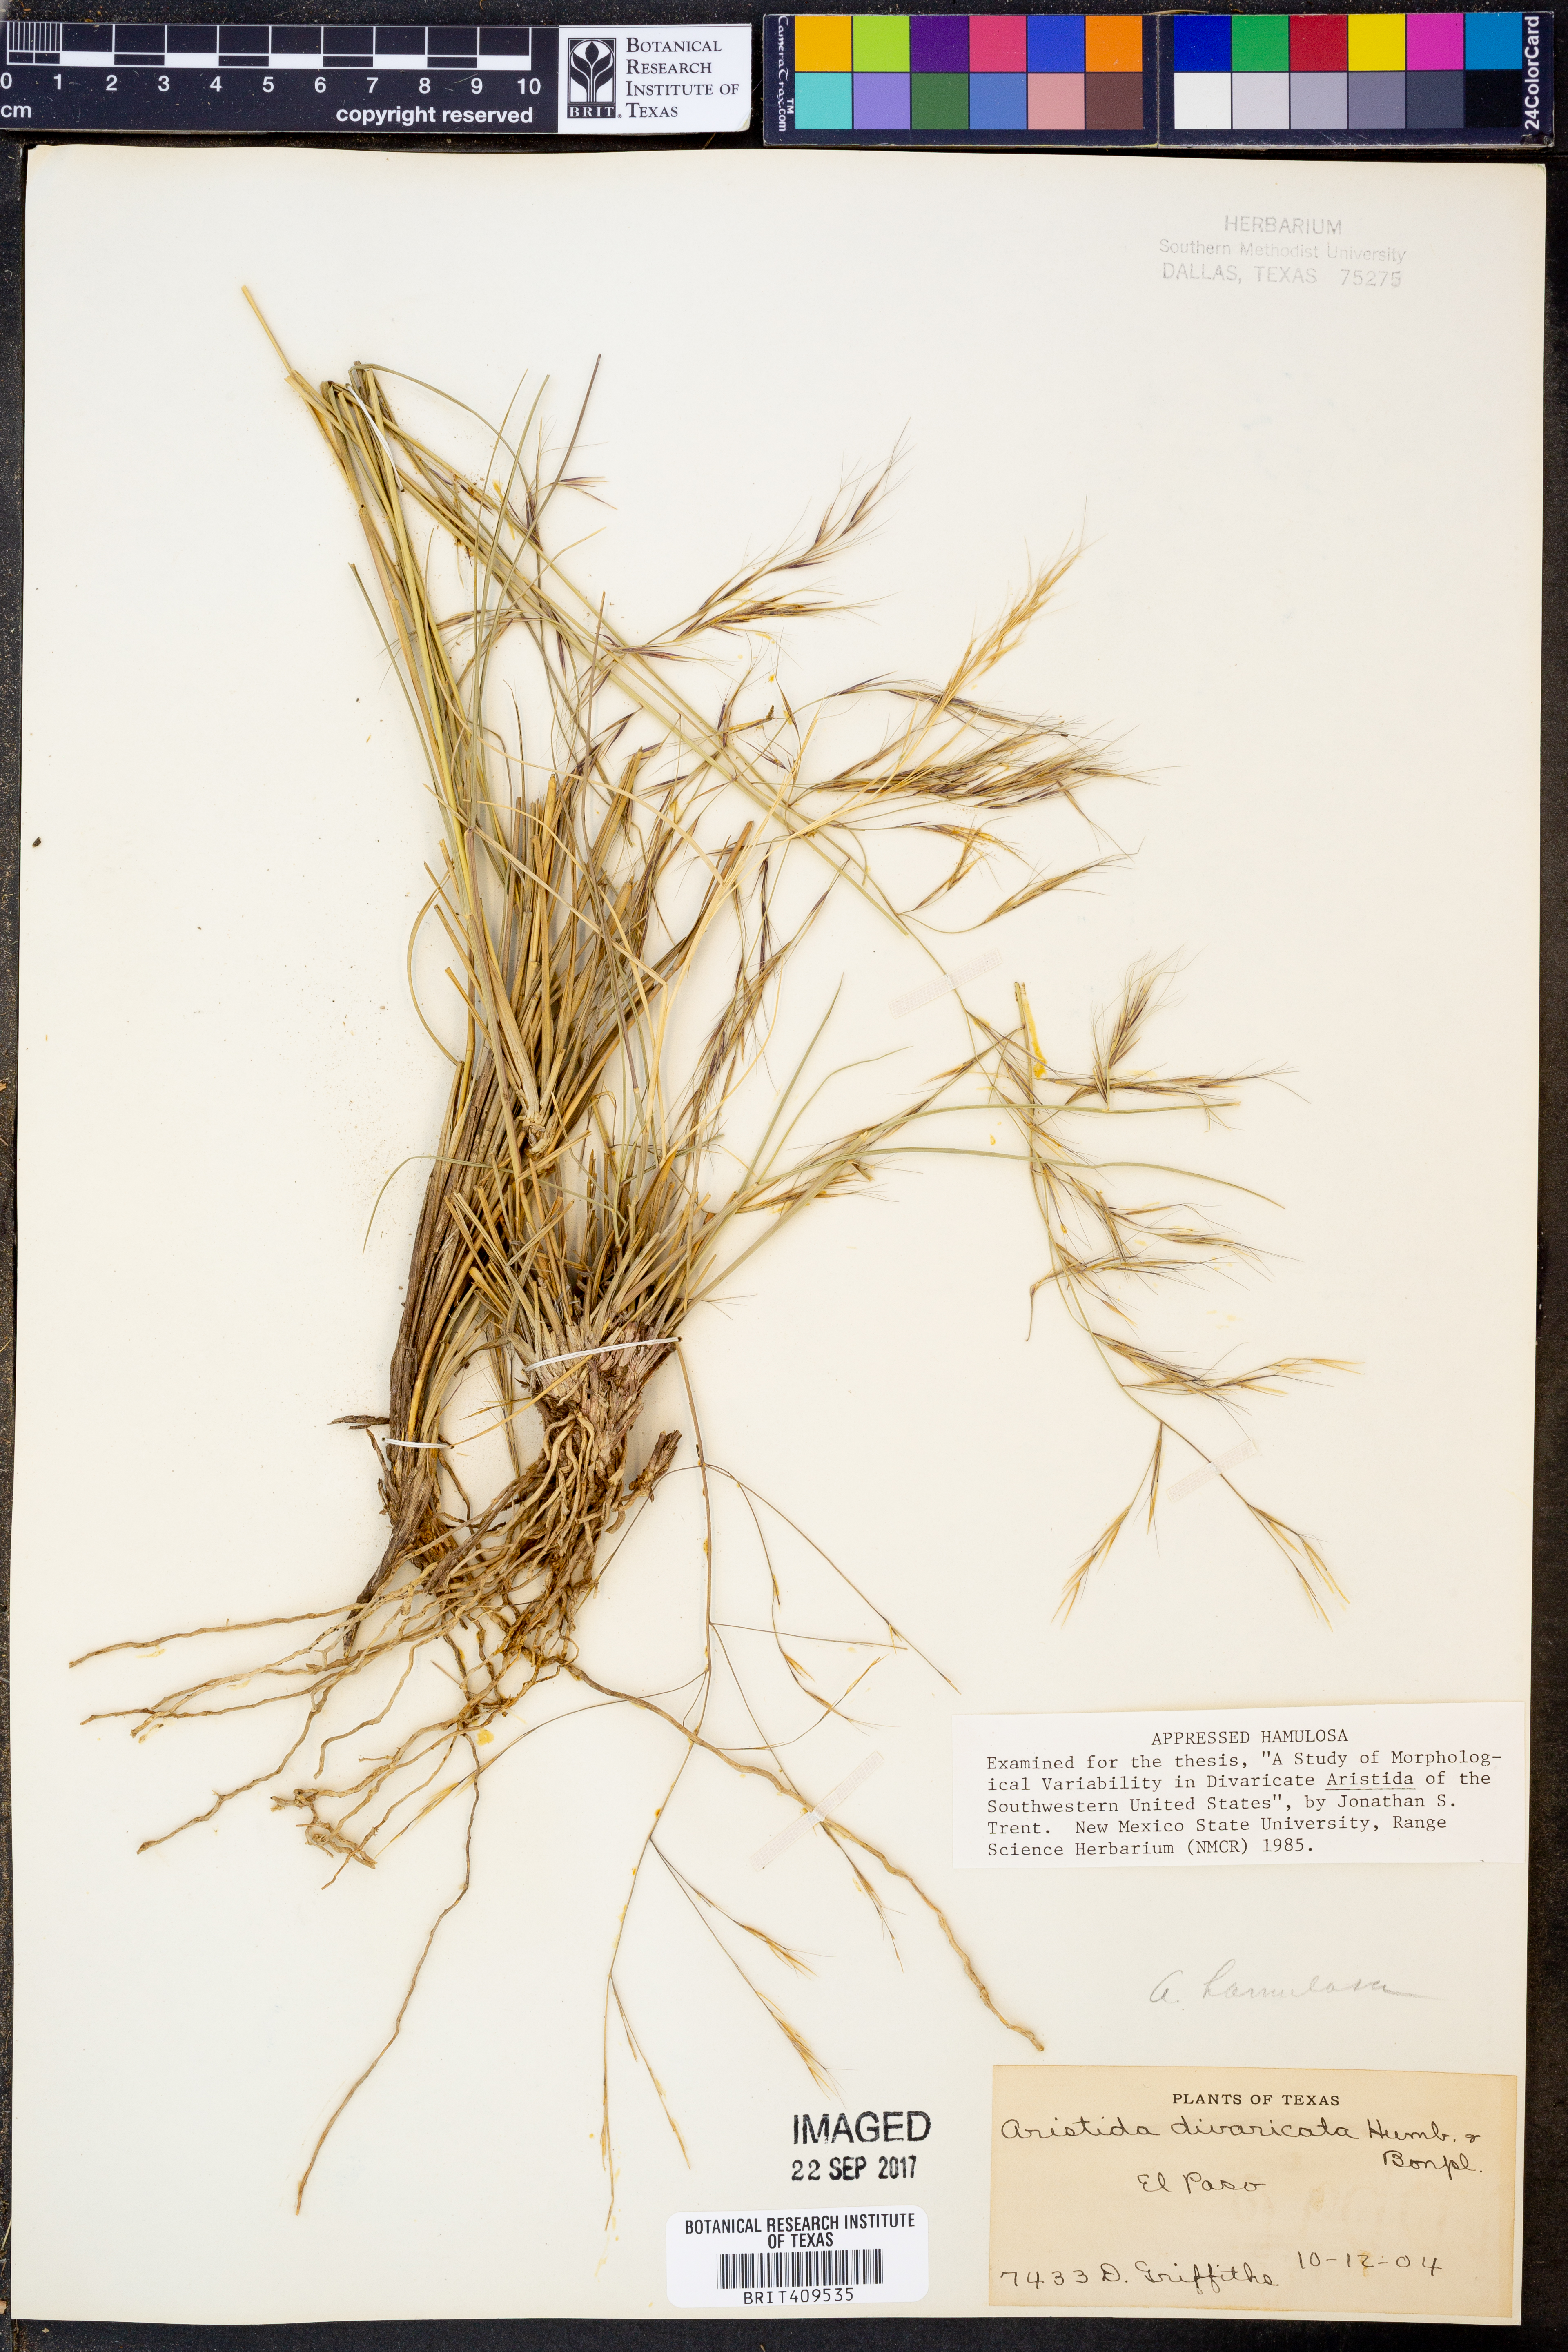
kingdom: Plantae
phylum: Tracheophyta
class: Liliopsida
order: Poales
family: Poaceae
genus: Aristida
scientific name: Aristida divaricata
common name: Poverty grass
